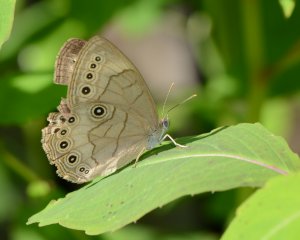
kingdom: Animalia
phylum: Arthropoda
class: Insecta
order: Lepidoptera
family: Nymphalidae
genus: Lethe
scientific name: Lethe eurydice
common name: Appalachian Eyed Brown
